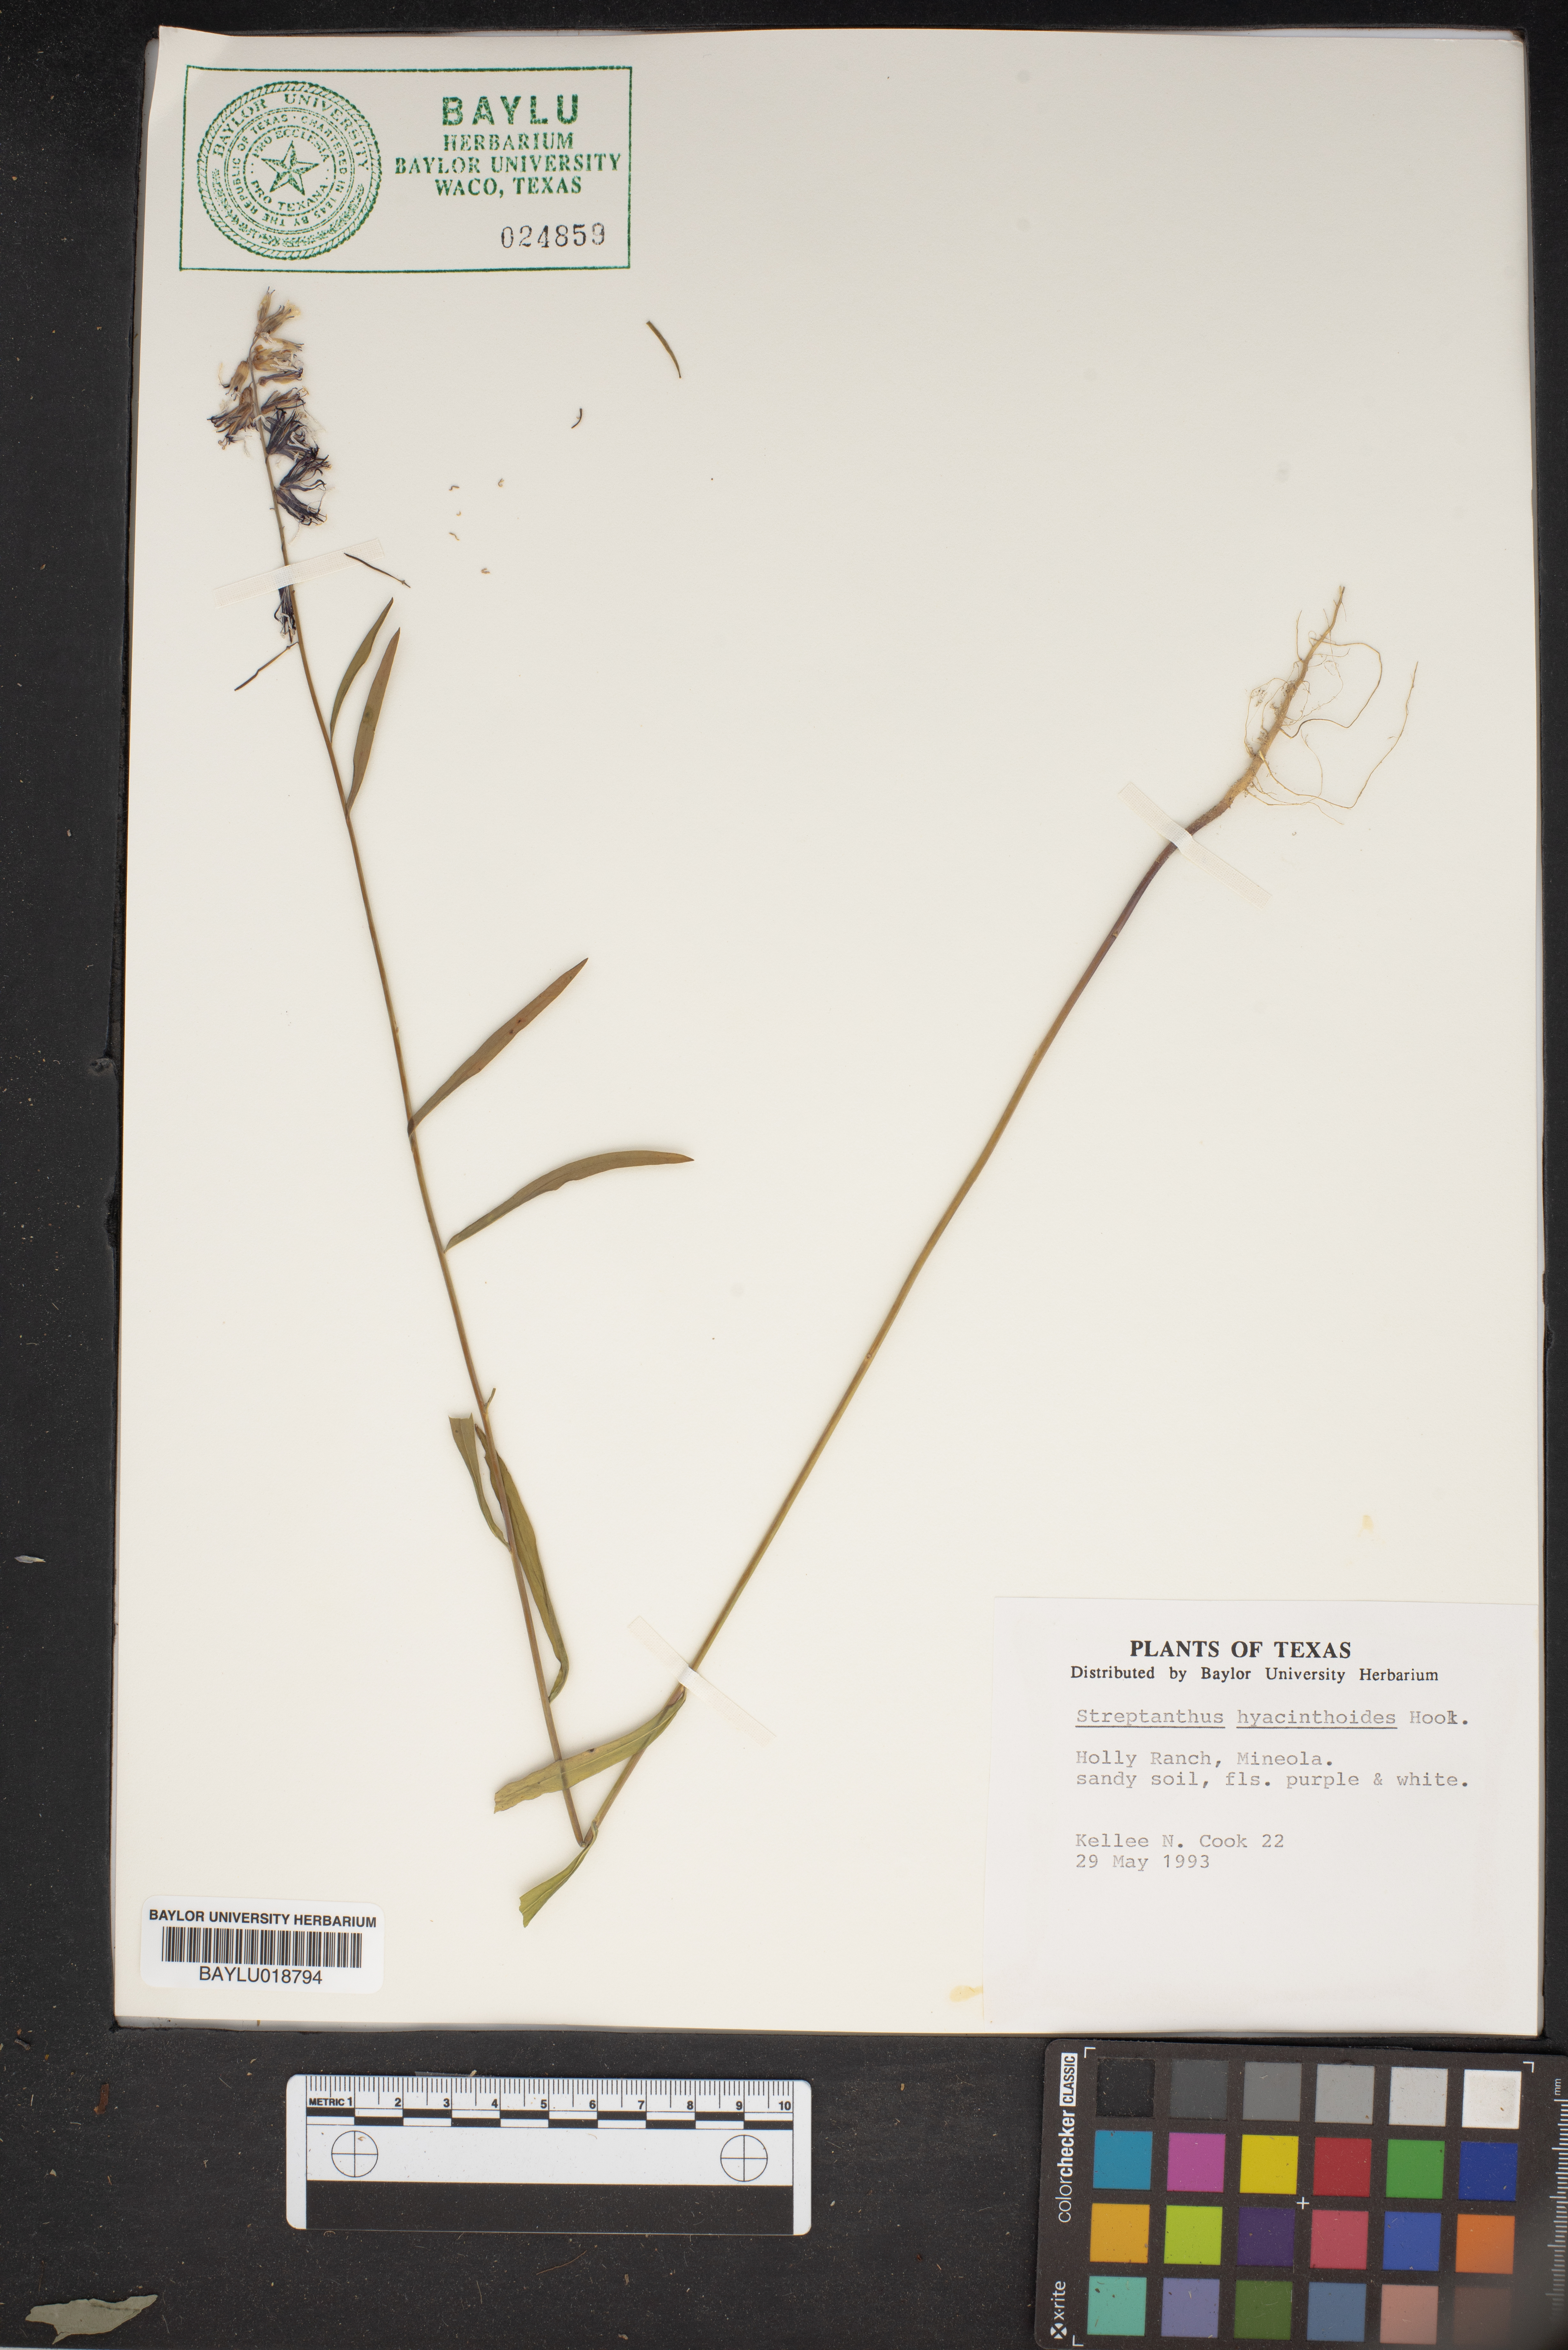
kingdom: Plantae
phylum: Tracheophyta
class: Magnoliopsida
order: Brassicales
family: Brassicaceae
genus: Streptanthus
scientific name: Streptanthus hyacinthoides
